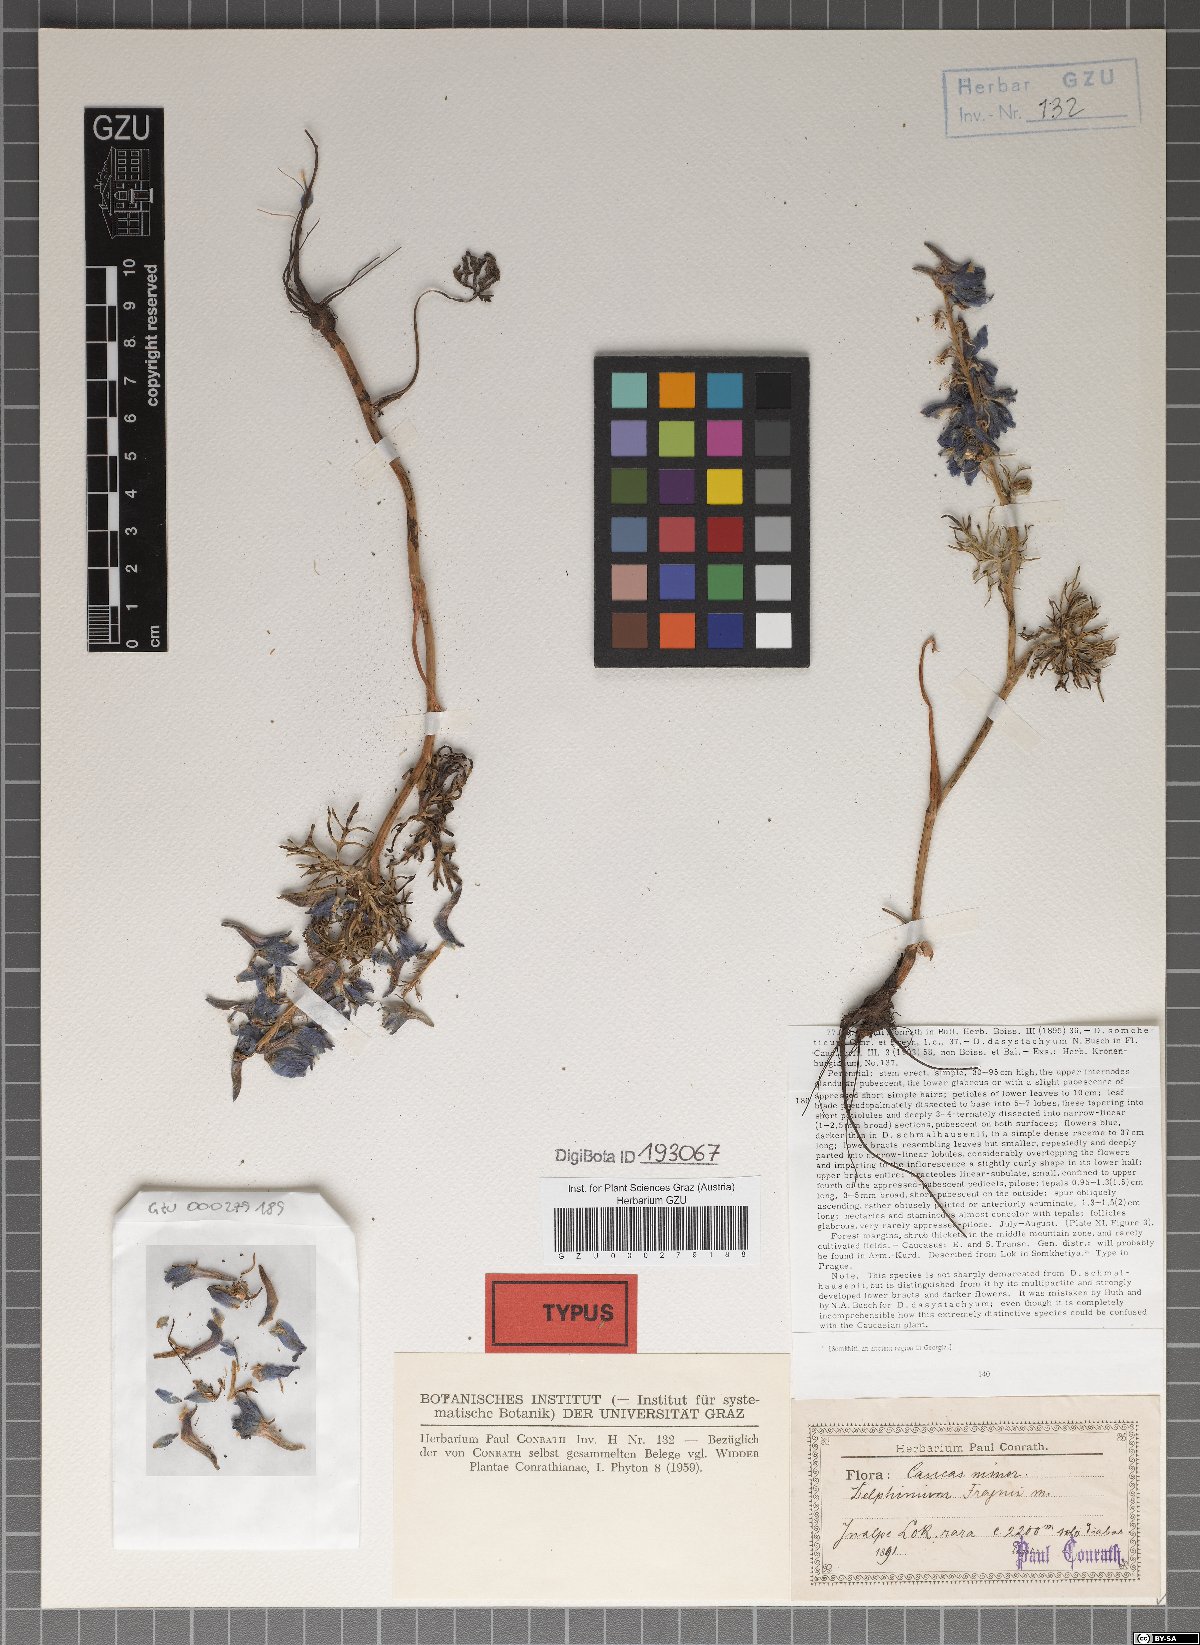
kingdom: Plantae
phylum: Tracheophyta
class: Magnoliopsida
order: Ranunculales
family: Ranunculaceae
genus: Delphinium
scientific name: Delphinium freynii
